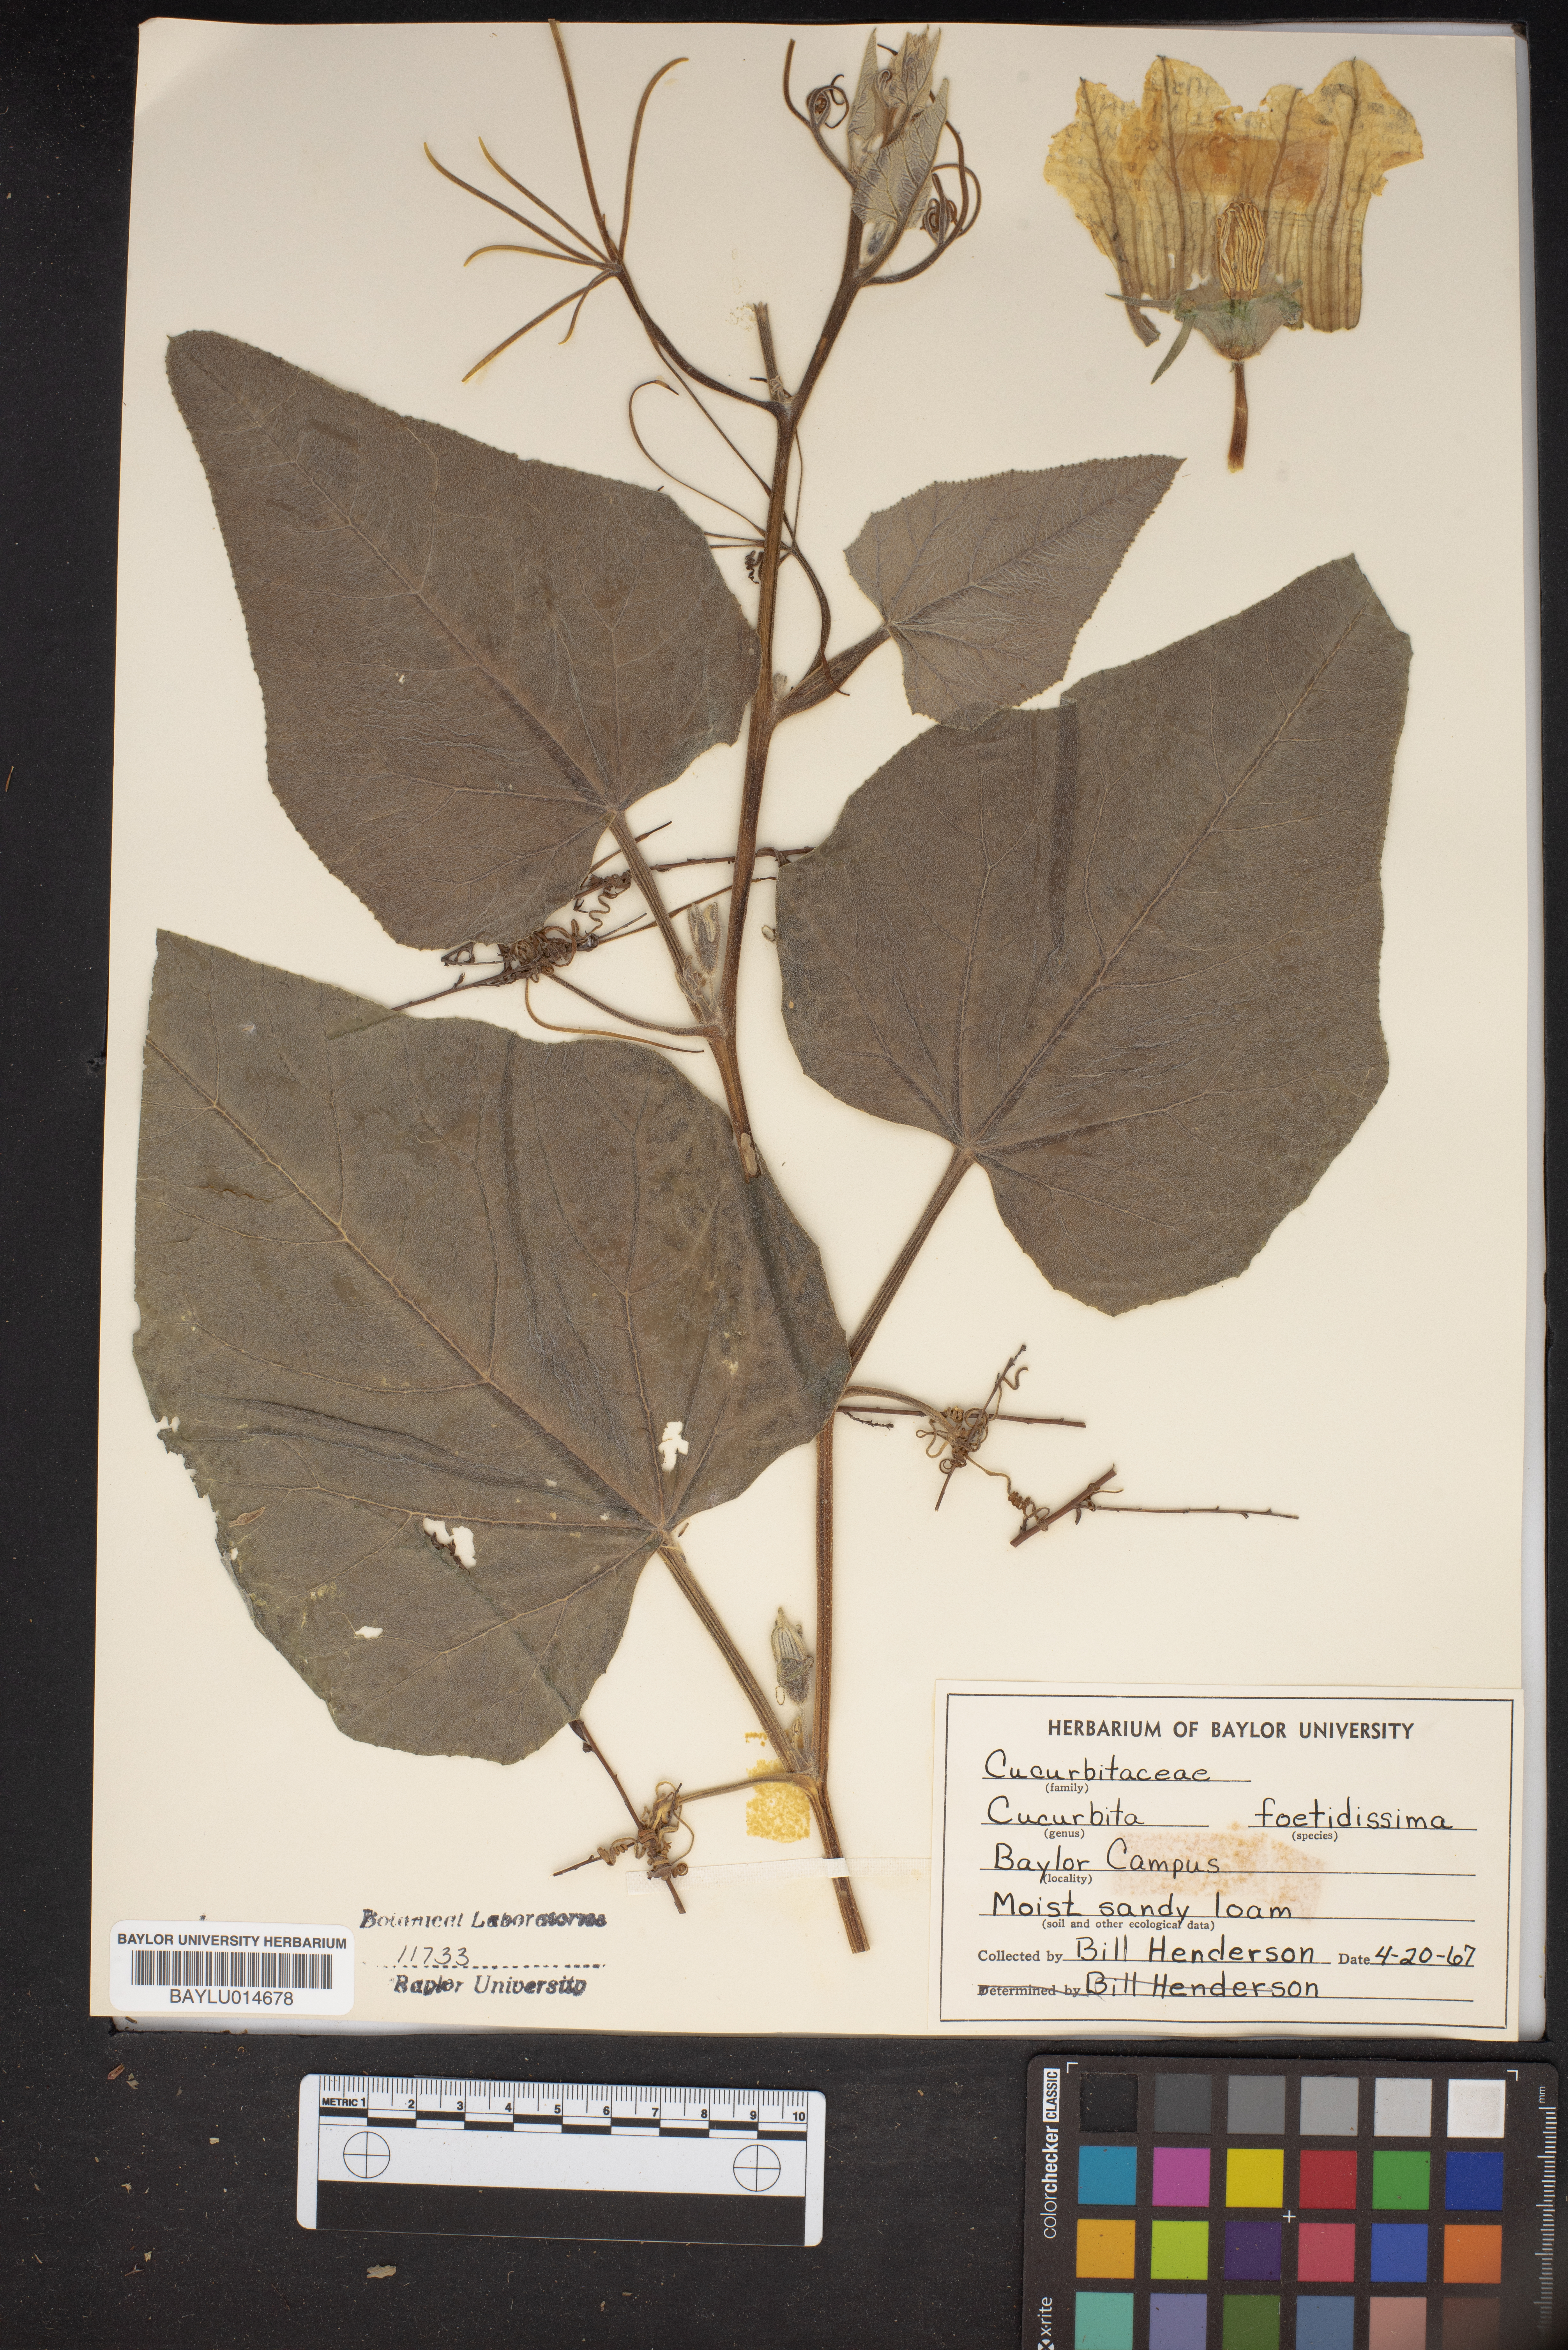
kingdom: Plantae
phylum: Tracheophyta
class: Magnoliopsida
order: Cucurbitales
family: Cucurbitaceae
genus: Cucurbita
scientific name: Cucurbita foetidissima
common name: Buffalo gourd
